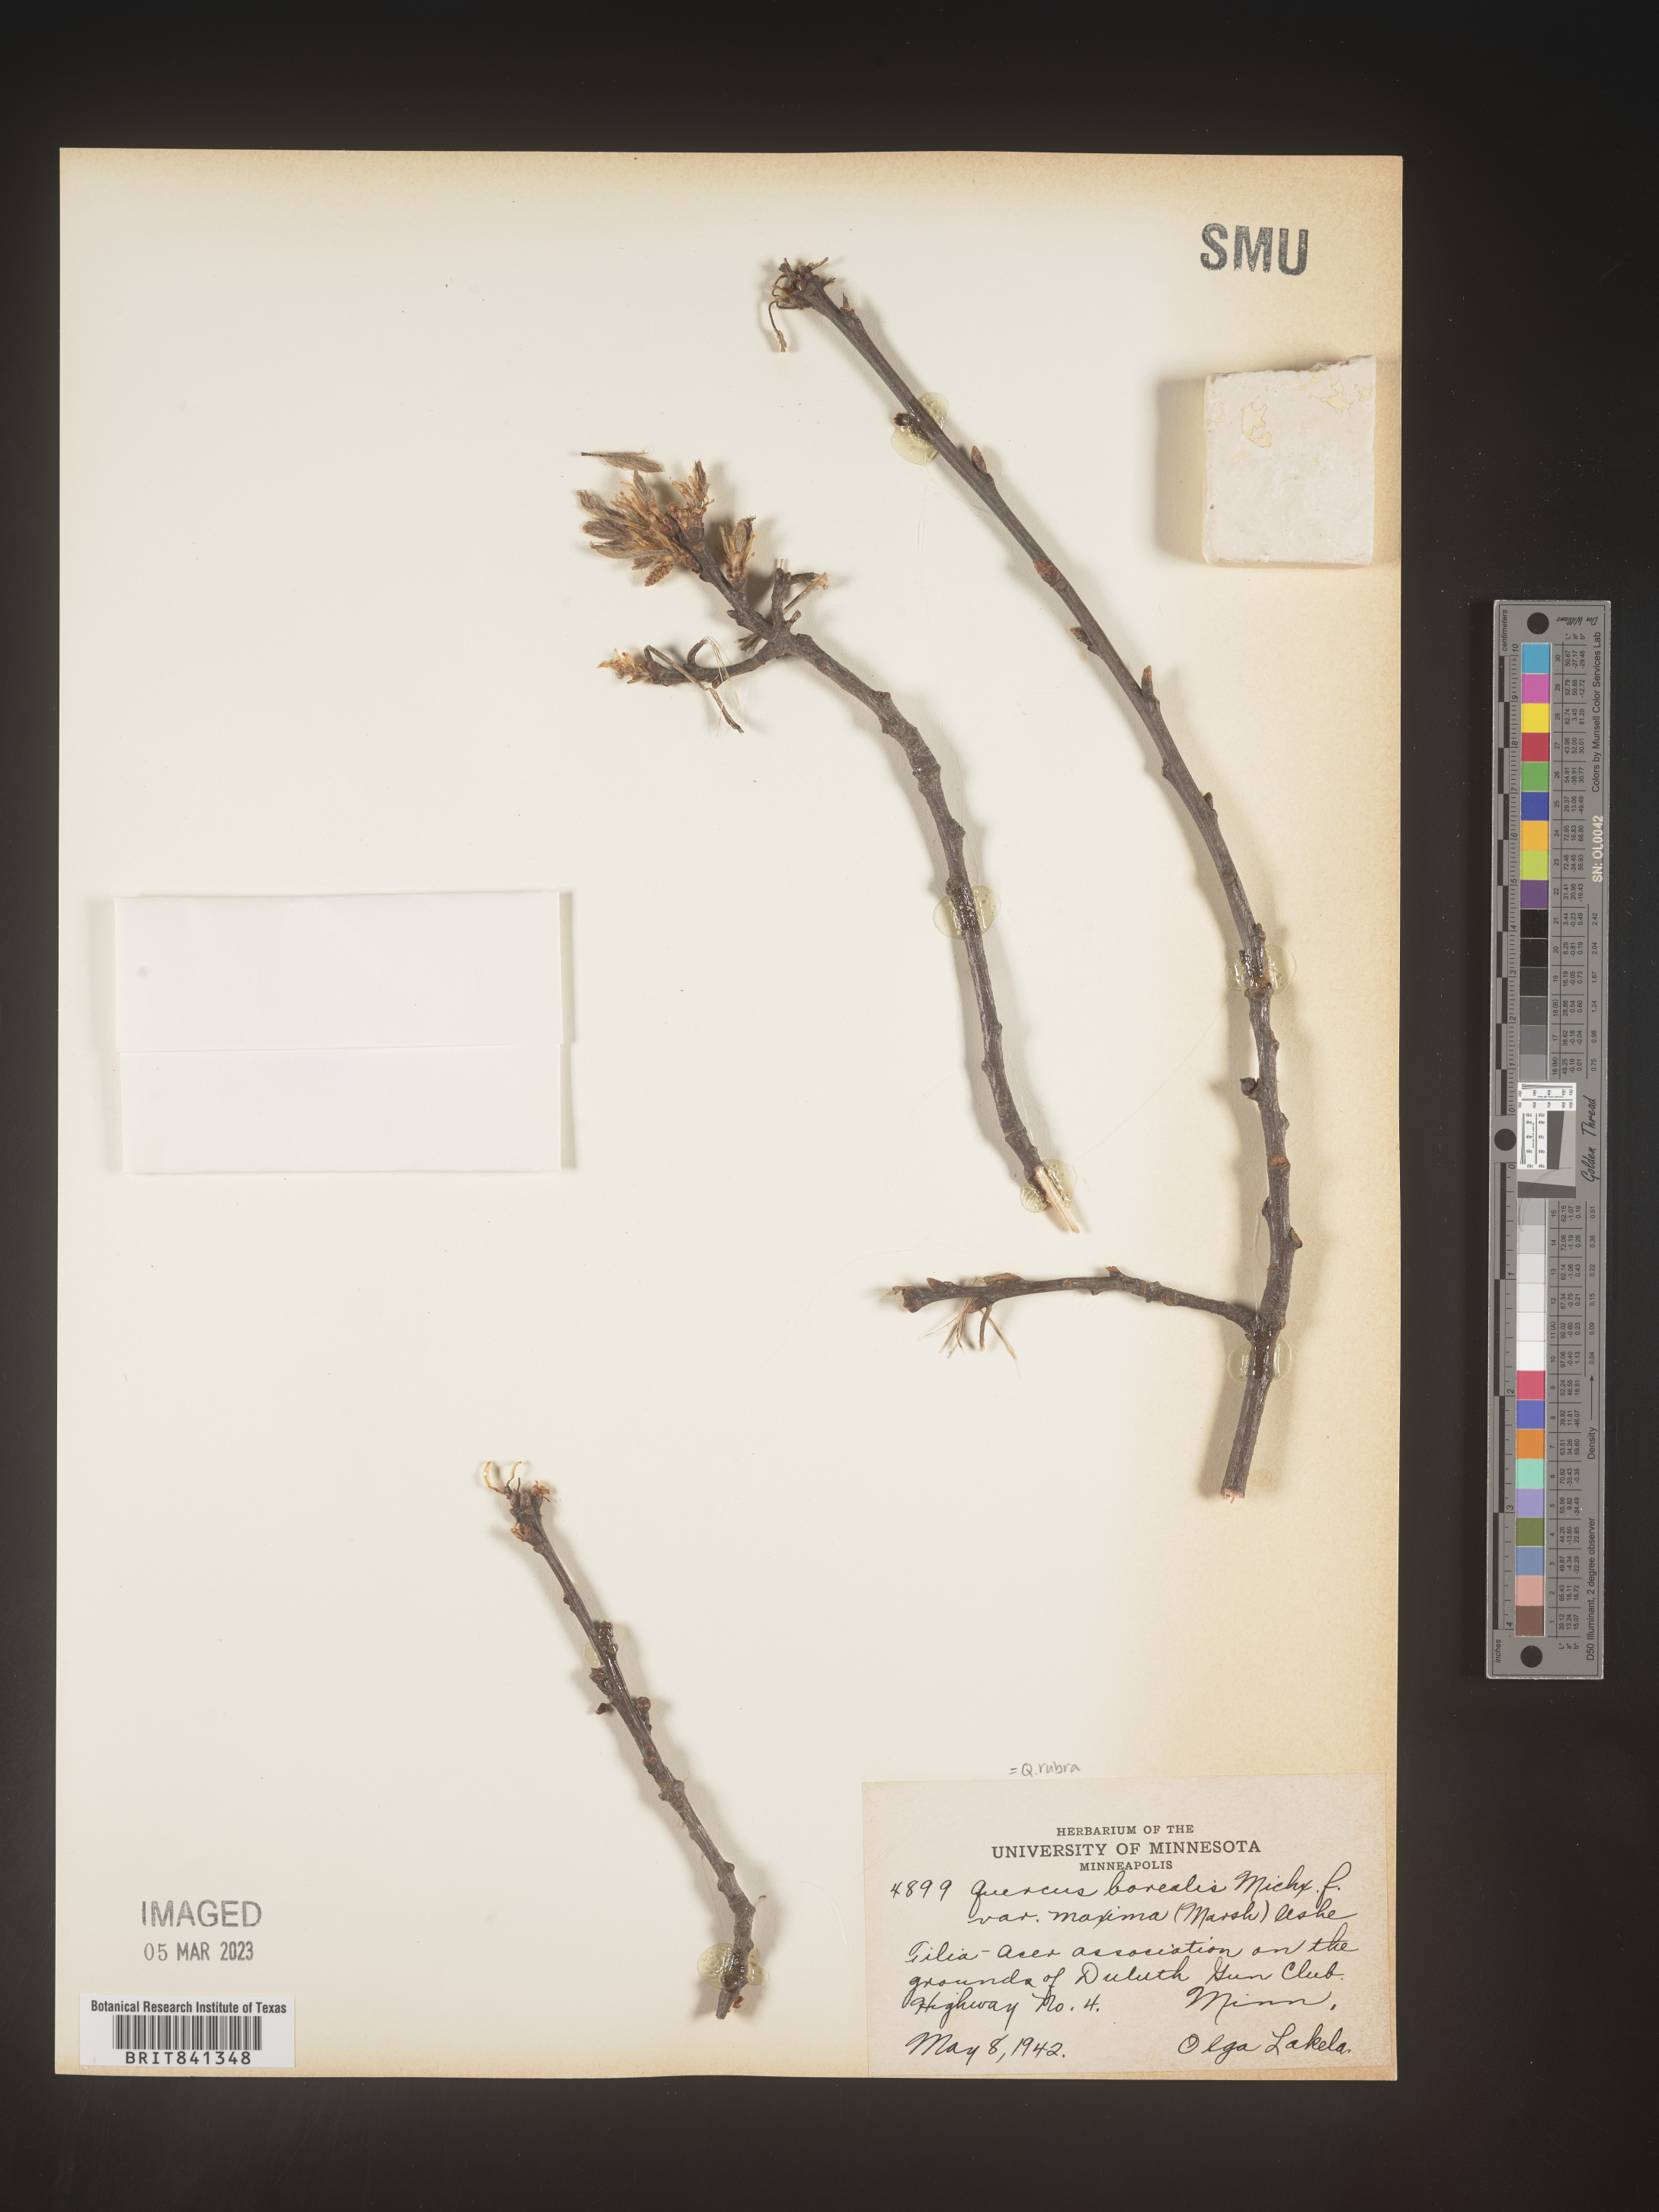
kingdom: Plantae
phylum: Tracheophyta
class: Magnoliopsida
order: Fagales
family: Fagaceae
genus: Quercus
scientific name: Quercus rubra
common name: Red oak
